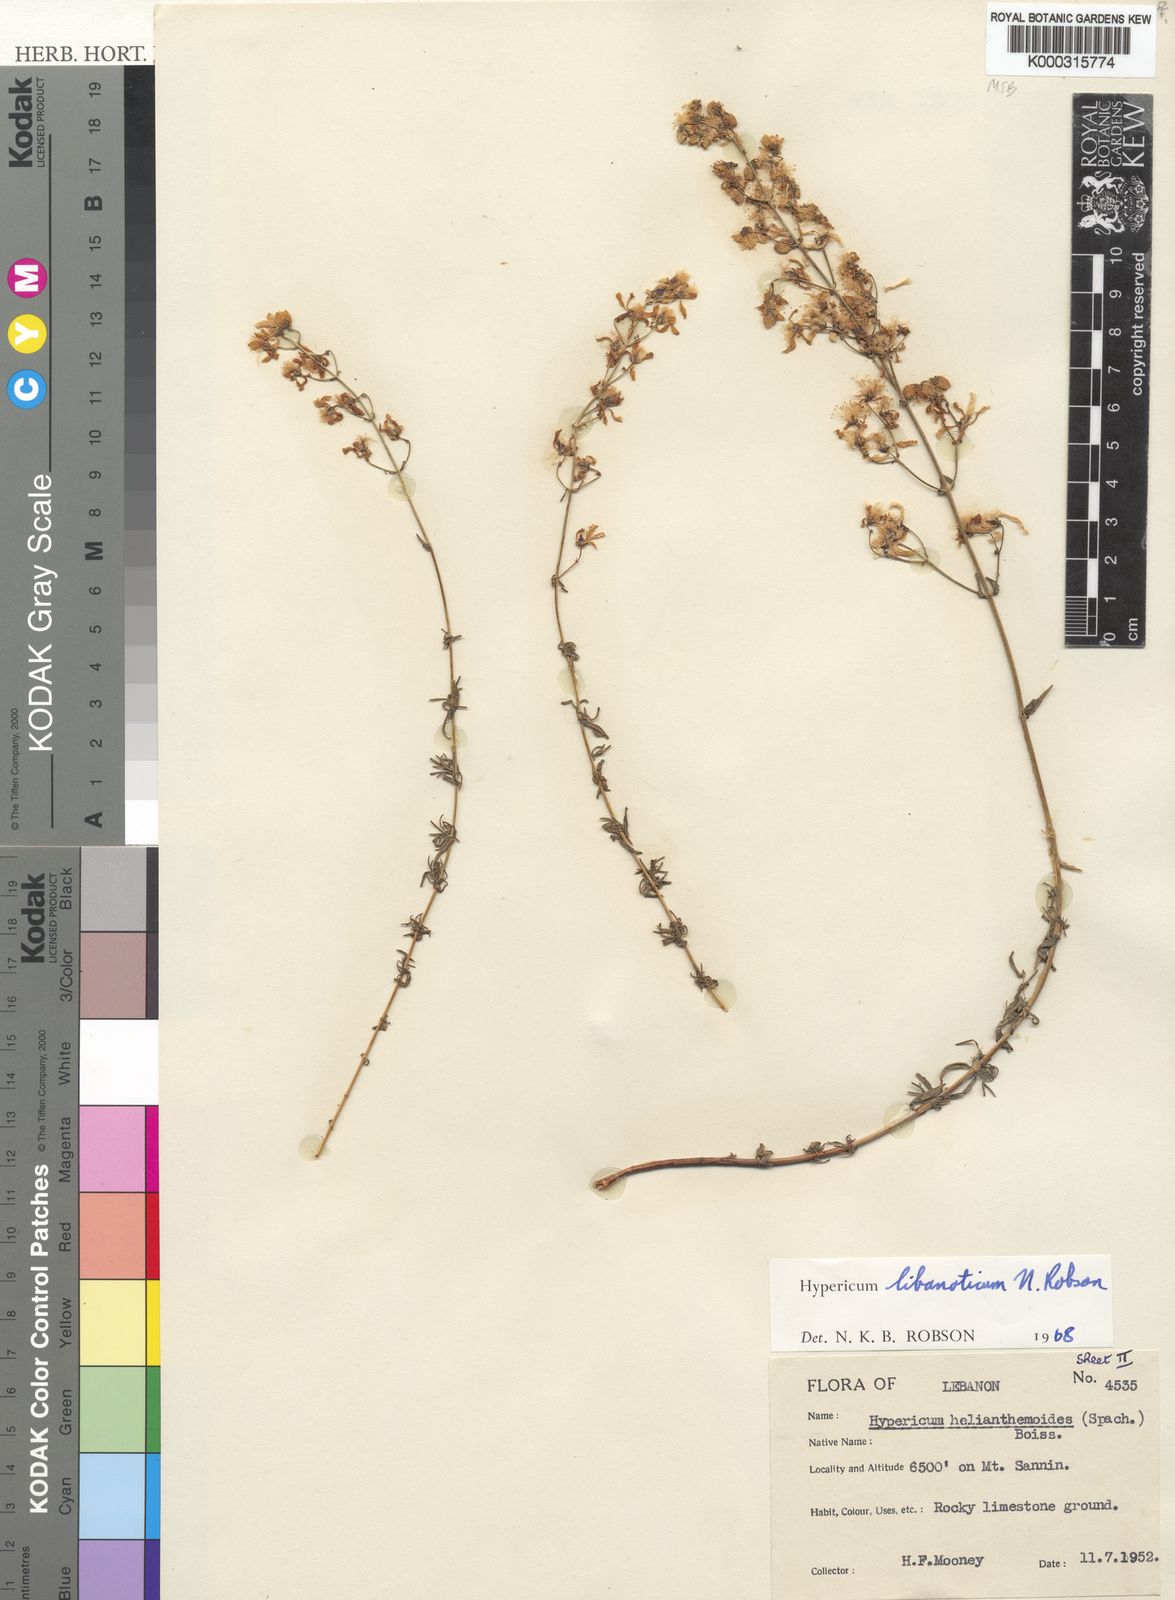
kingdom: Plantae
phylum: Tracheophyta
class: Magnoliopsida
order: Malpighiales
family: Hypericaceae
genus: Hypericum
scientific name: Hypericum libanoticum
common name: Lebanon saint john’s wort
